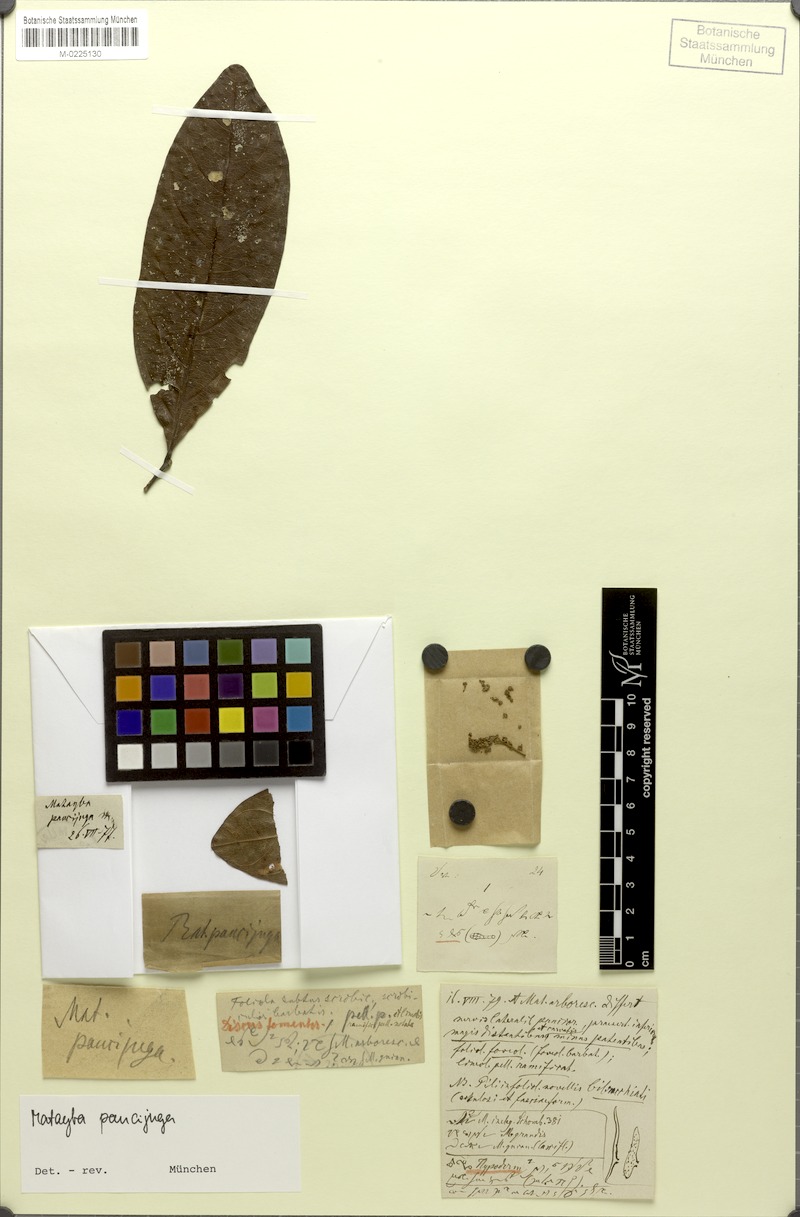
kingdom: Plantae
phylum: Tracheophyta
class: Magnoliopsida
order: Sapindales
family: Sapindaceae
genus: Matayba
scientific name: Matayba paucijuga
